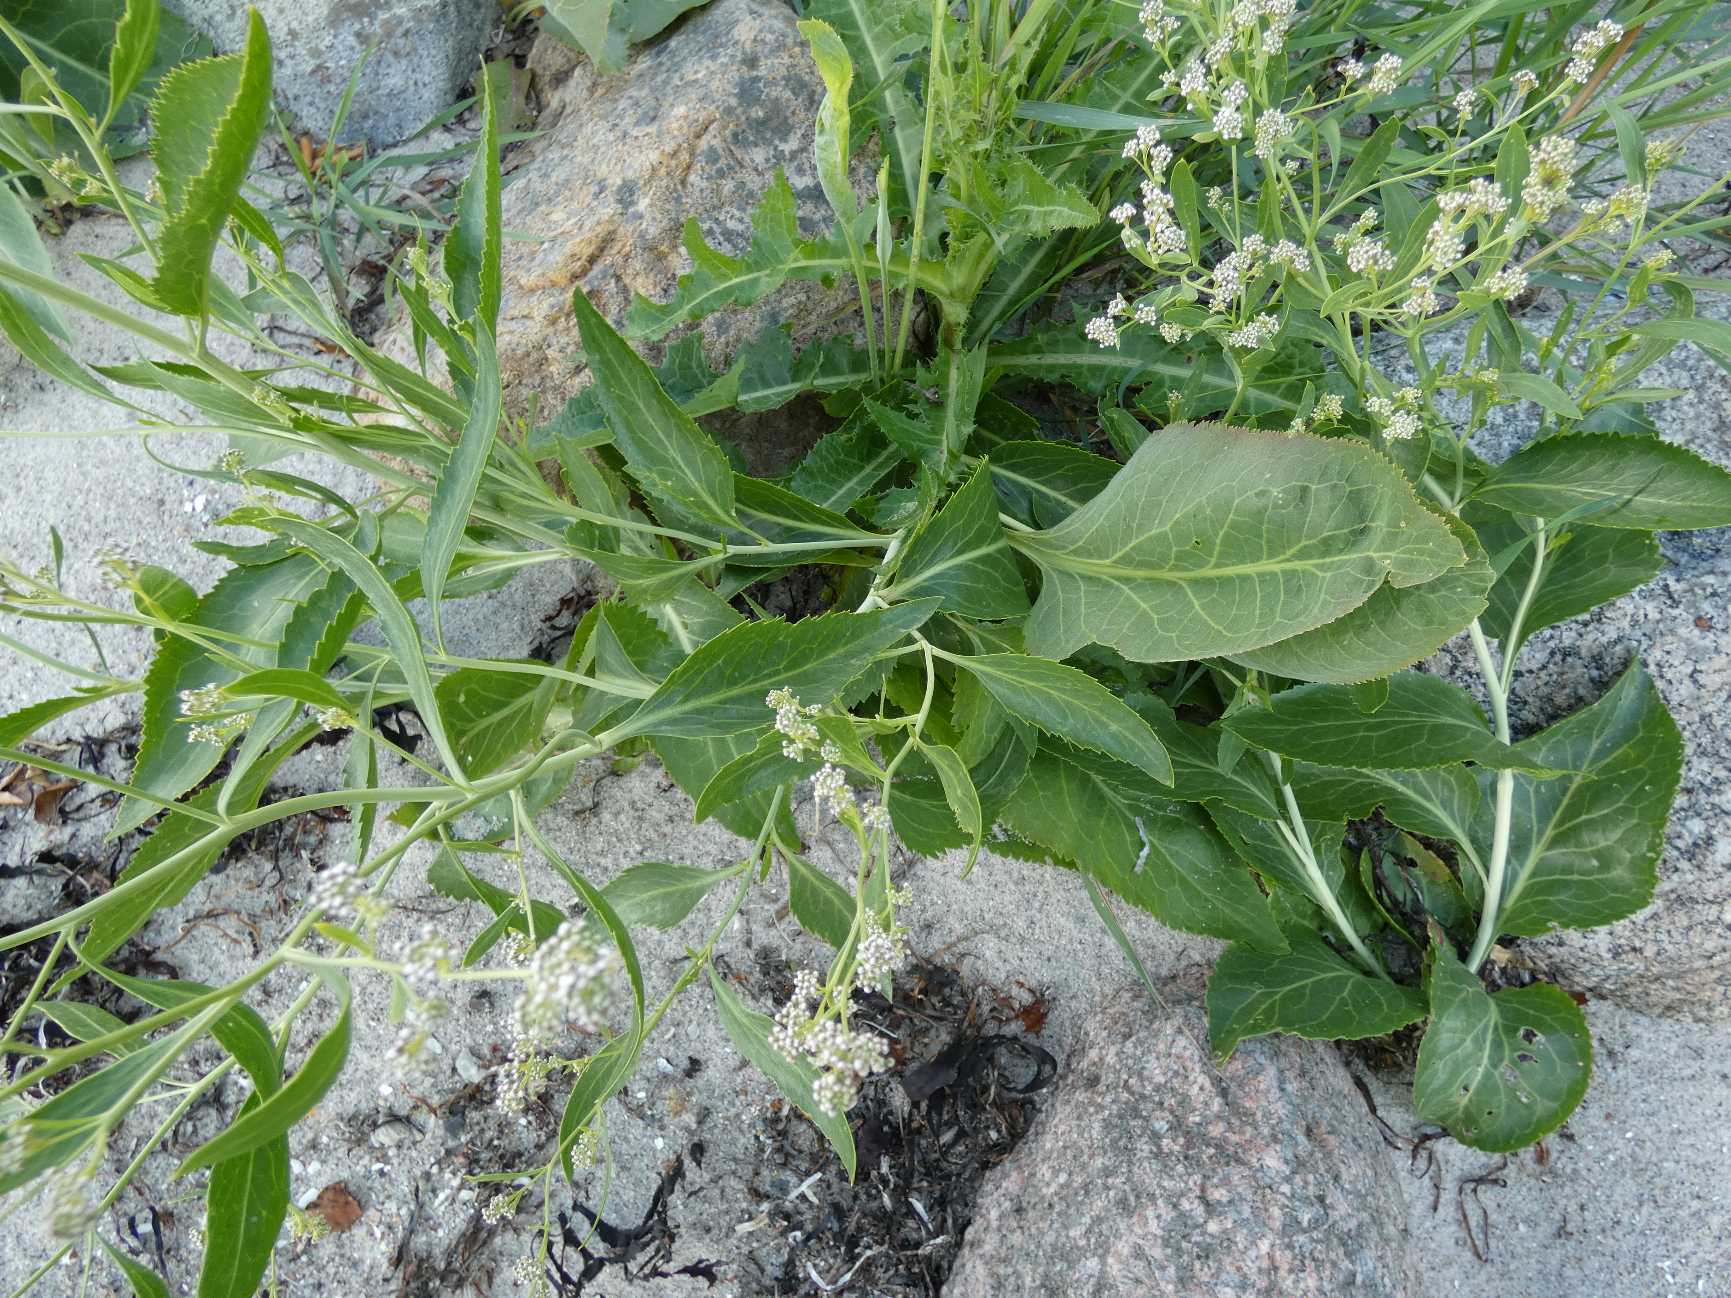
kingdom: Plantae
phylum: Tracheophyta
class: Magnoliopsida
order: Brassicales
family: Brassicaceae
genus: Lepidium
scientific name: Lepidium latifolium
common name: Strand-karse
